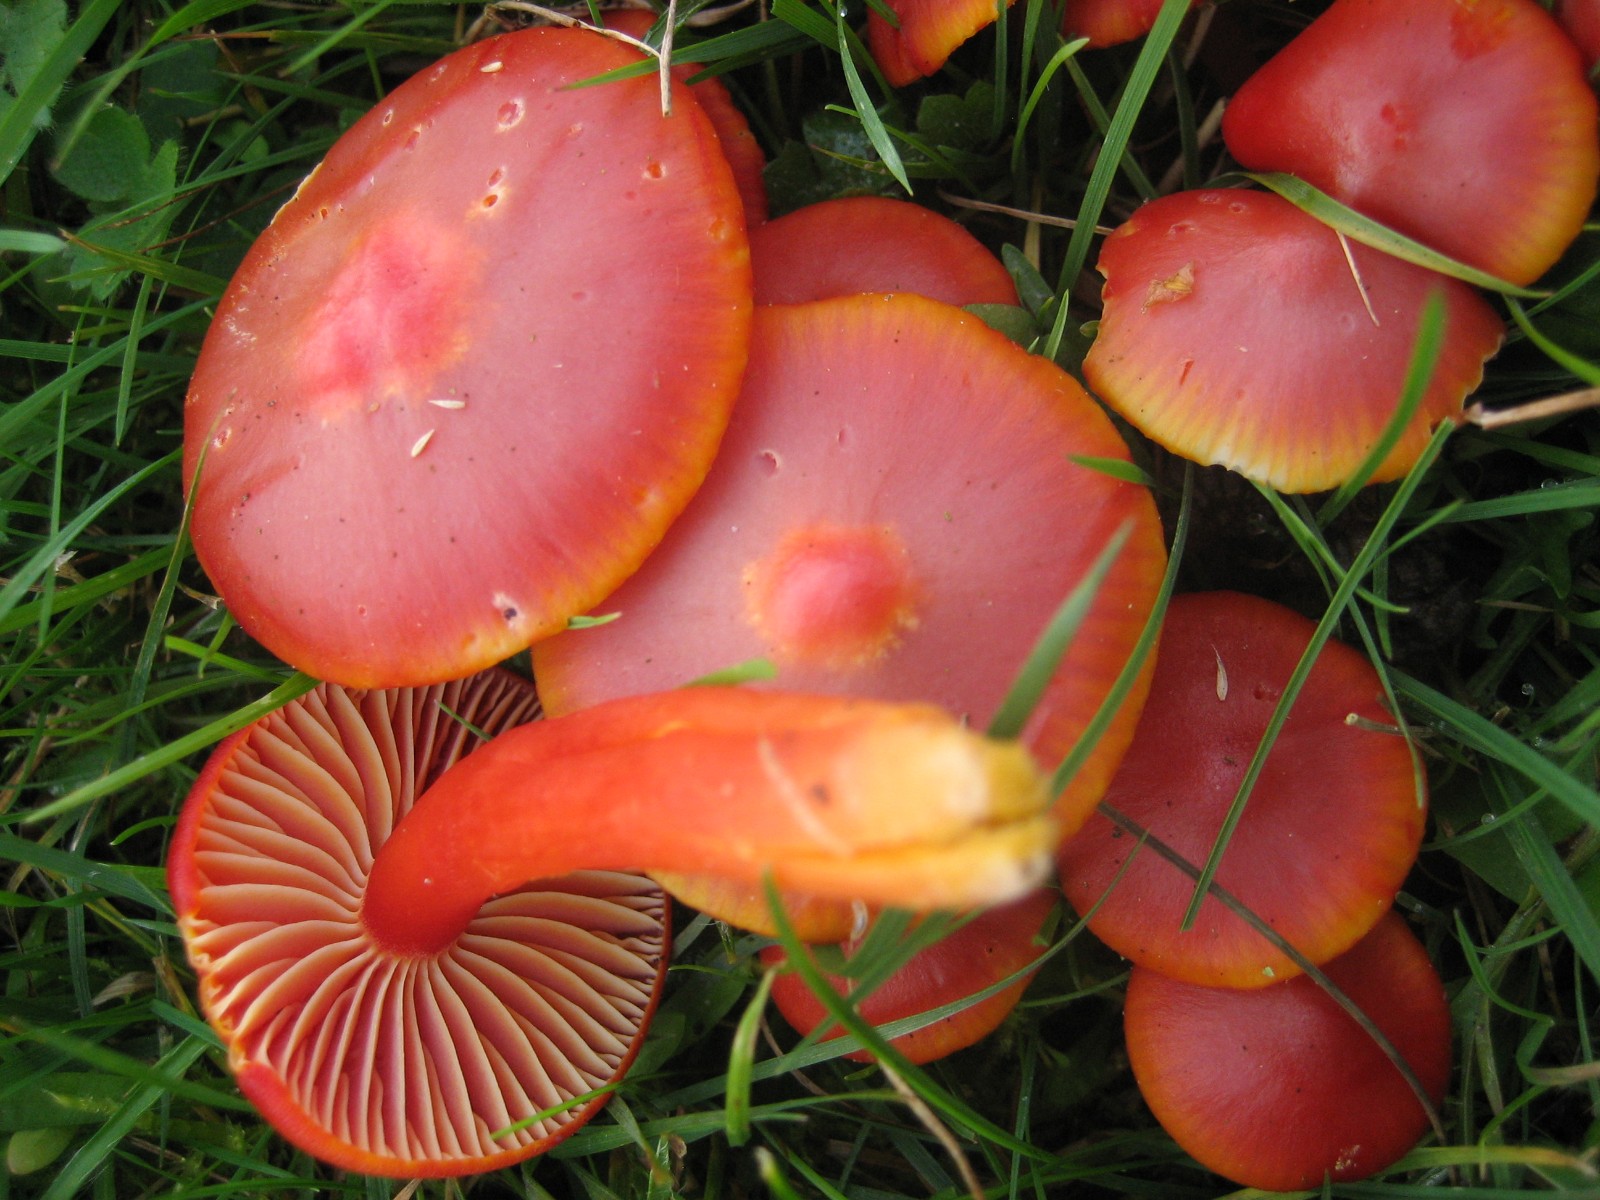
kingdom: Fungi
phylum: Basidiomycota
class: Agaricomycetes
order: Agaricales
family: Hygrophoraceae
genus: Hygrocybe
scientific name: Hygrocybe coccinea
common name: cinnober-vokshat
